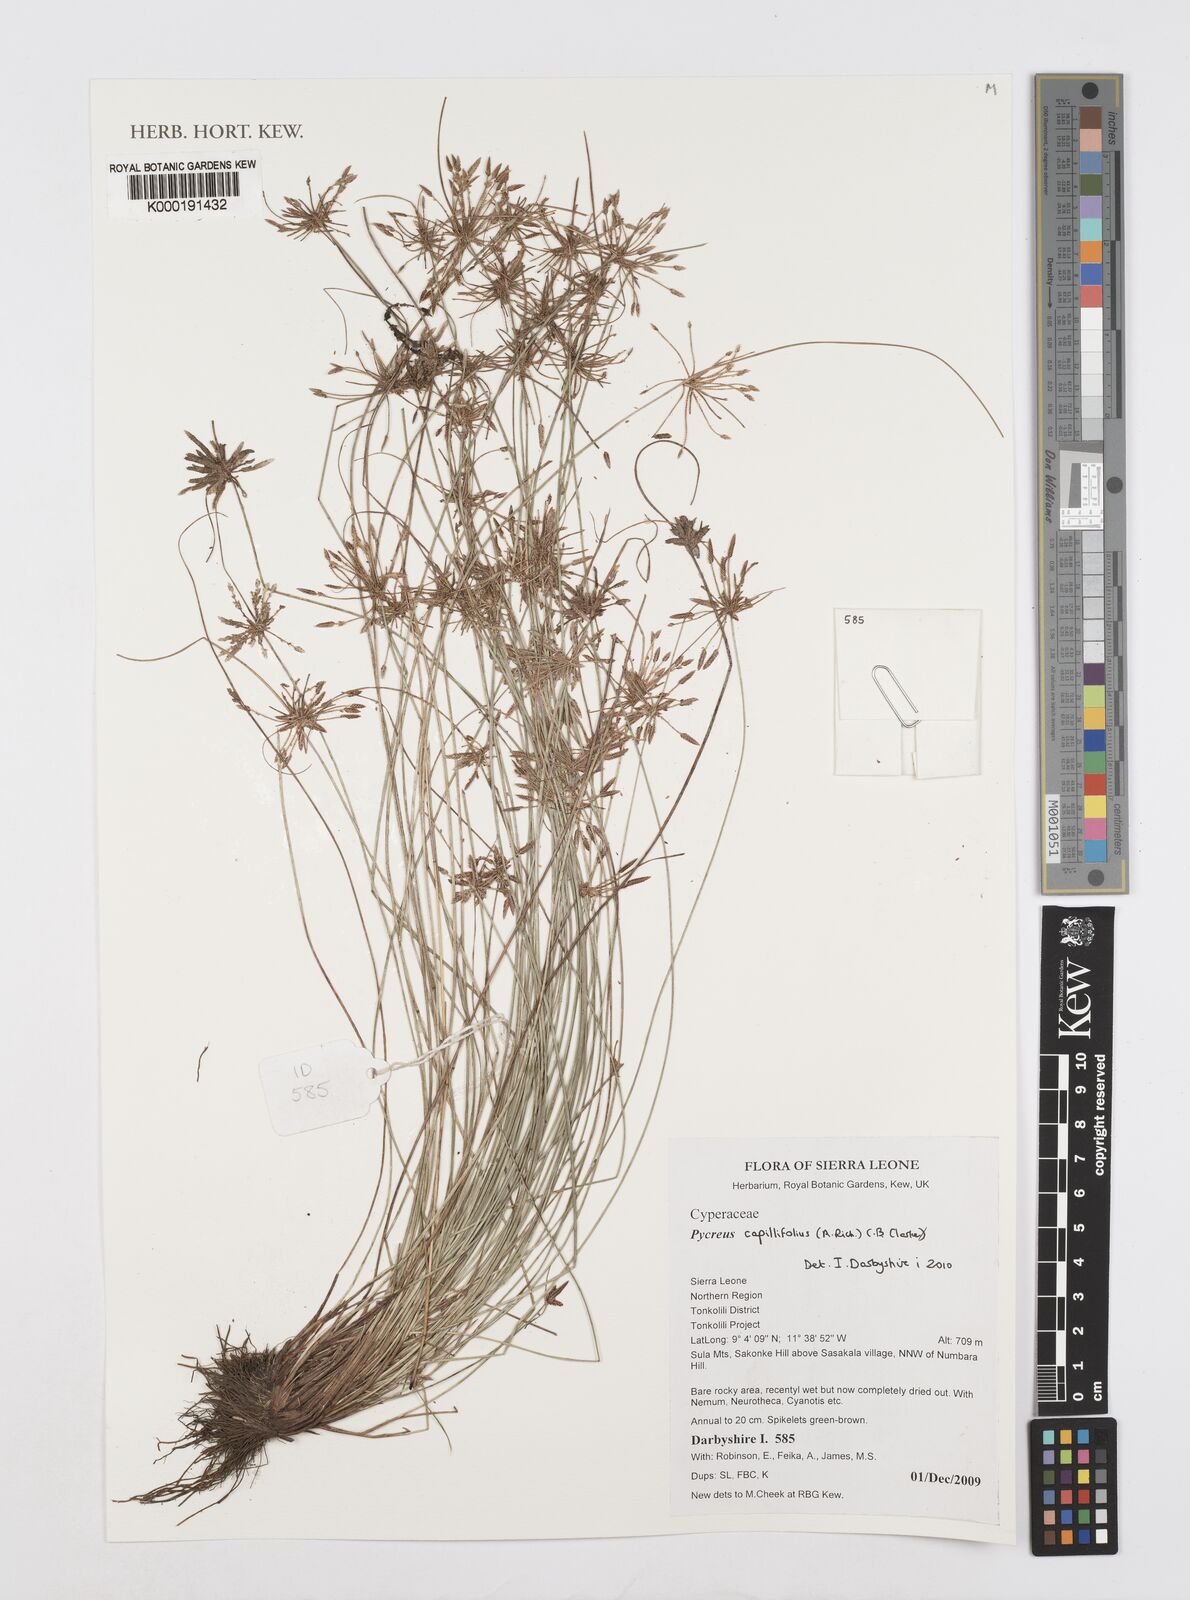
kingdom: Plantae
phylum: Tracheophyta
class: Liliopsida
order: Poales
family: Cyperaceae
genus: Cyperus
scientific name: Cyperus capillifolius
